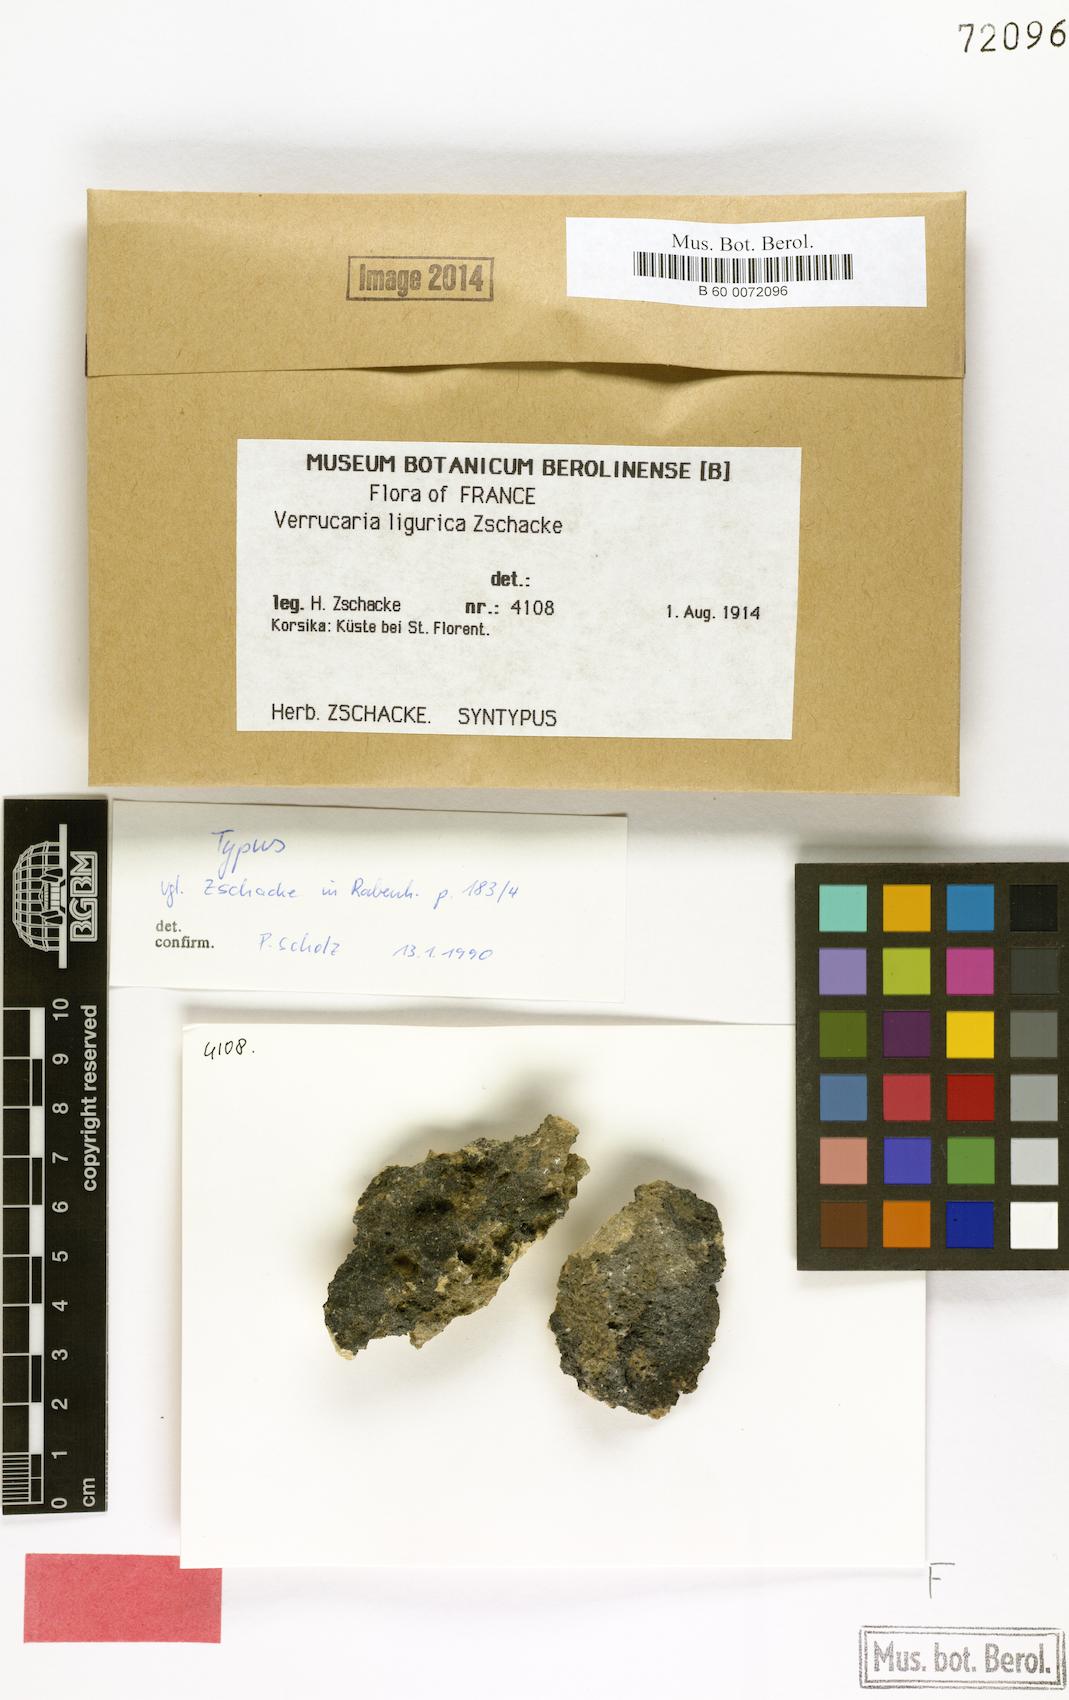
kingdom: Fungi
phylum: Ascomycota
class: Eurotiomycetes
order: Verrucariales
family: Verrucariaceae
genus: Verrucaria
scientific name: Verrucaria ligurica
